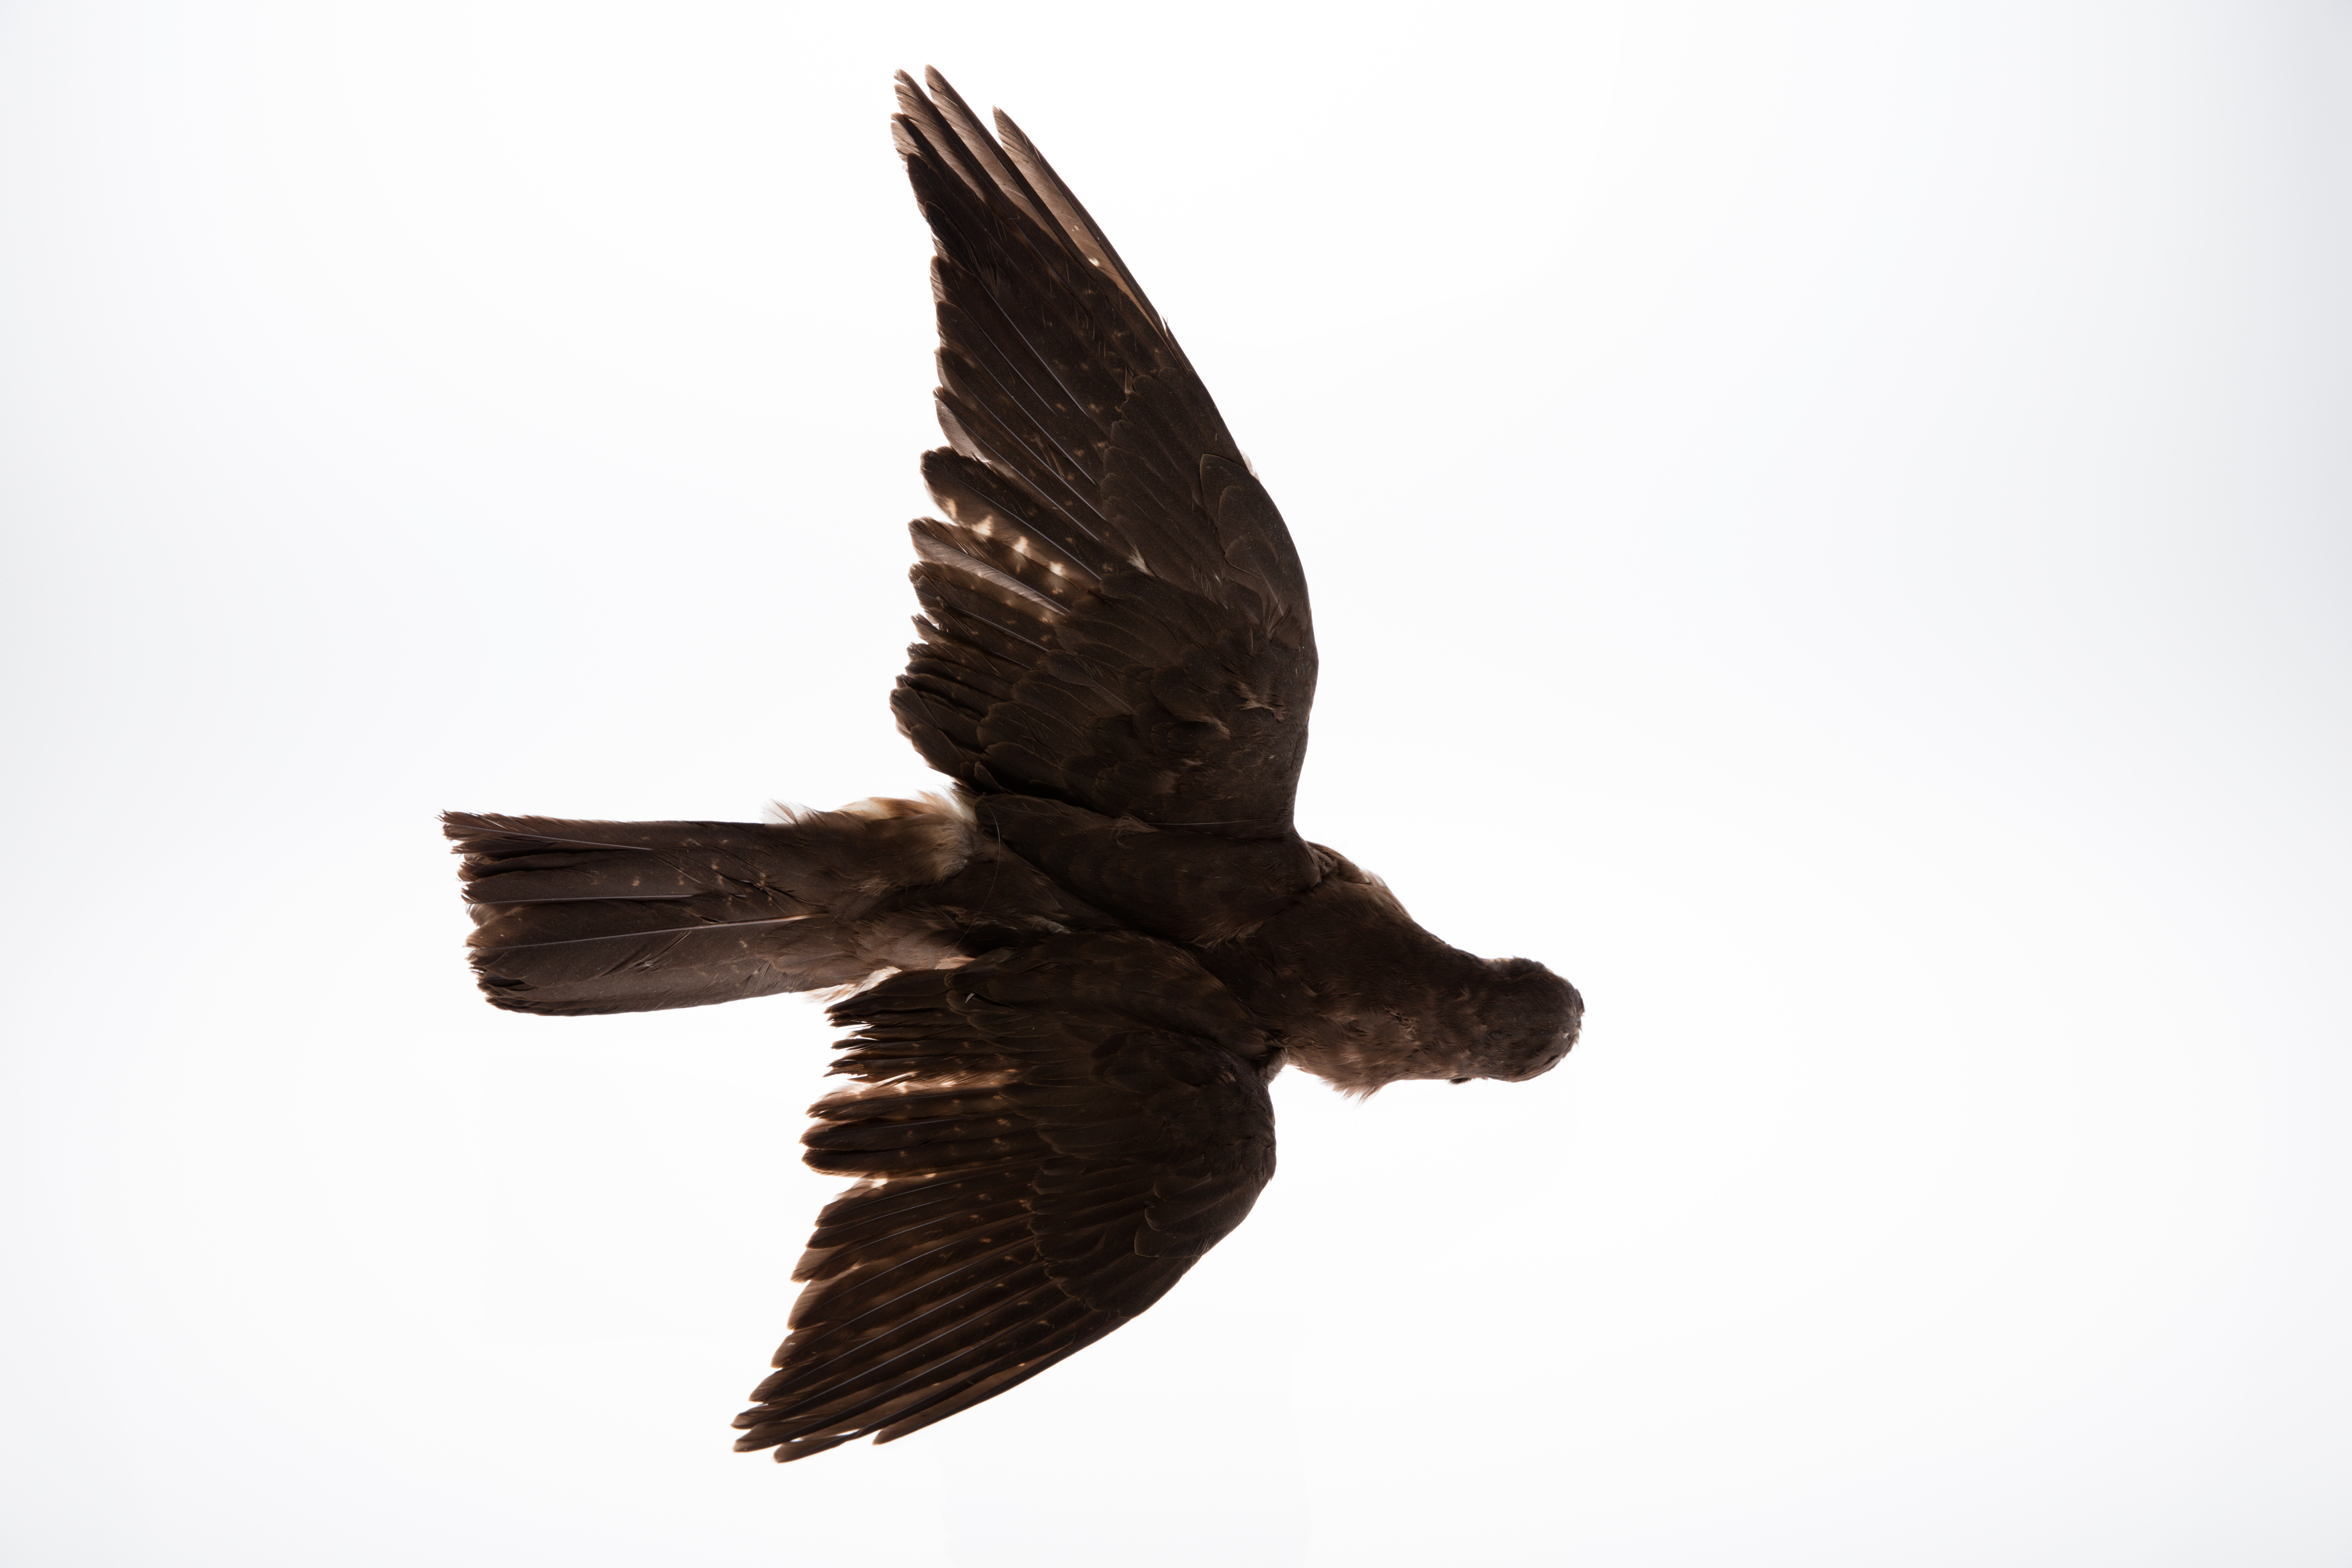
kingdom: Animalia
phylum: Chordata
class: Aves
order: Falconiformes
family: Falconidae
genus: Falco
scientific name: Falco novaeseelandiae
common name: New zealand falcon
